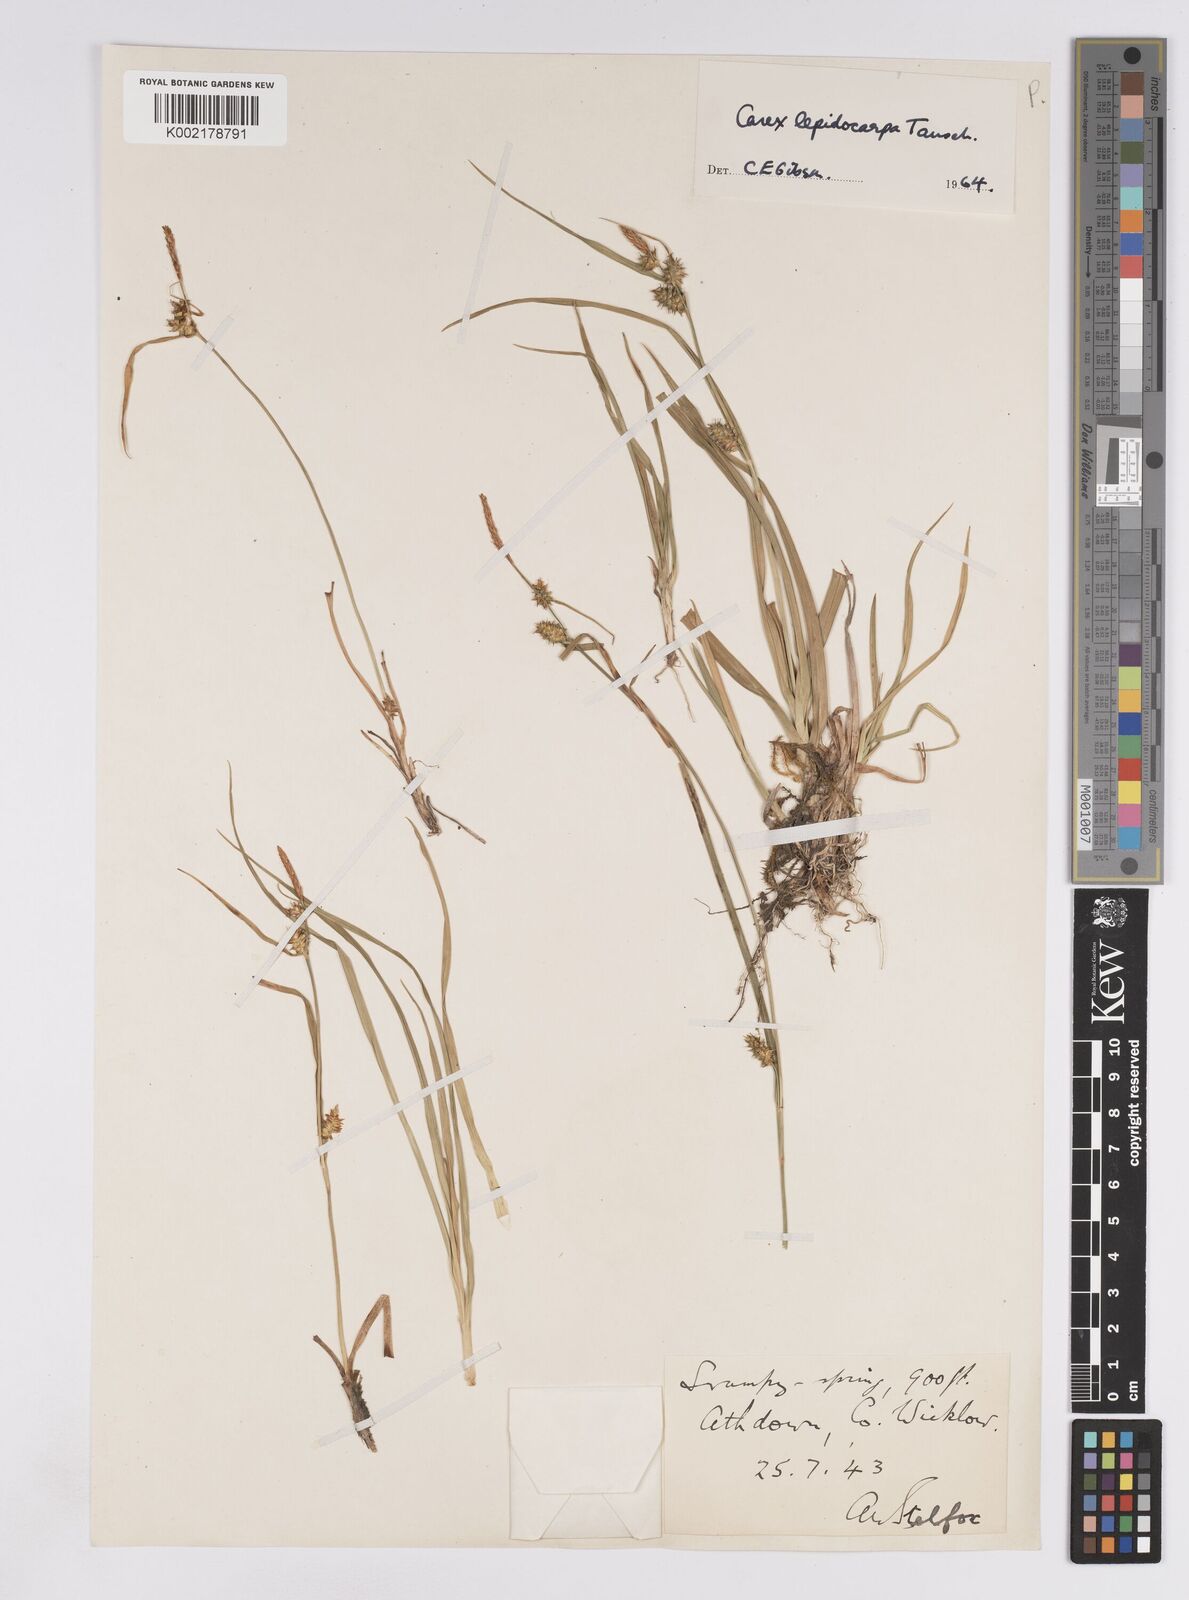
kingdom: Plantae
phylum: Tracheophyta
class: Liliopsida
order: Poales
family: Cyperaceae
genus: Carex
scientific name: Carex lepidocarpa
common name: Long-stalked yellow-sedge
